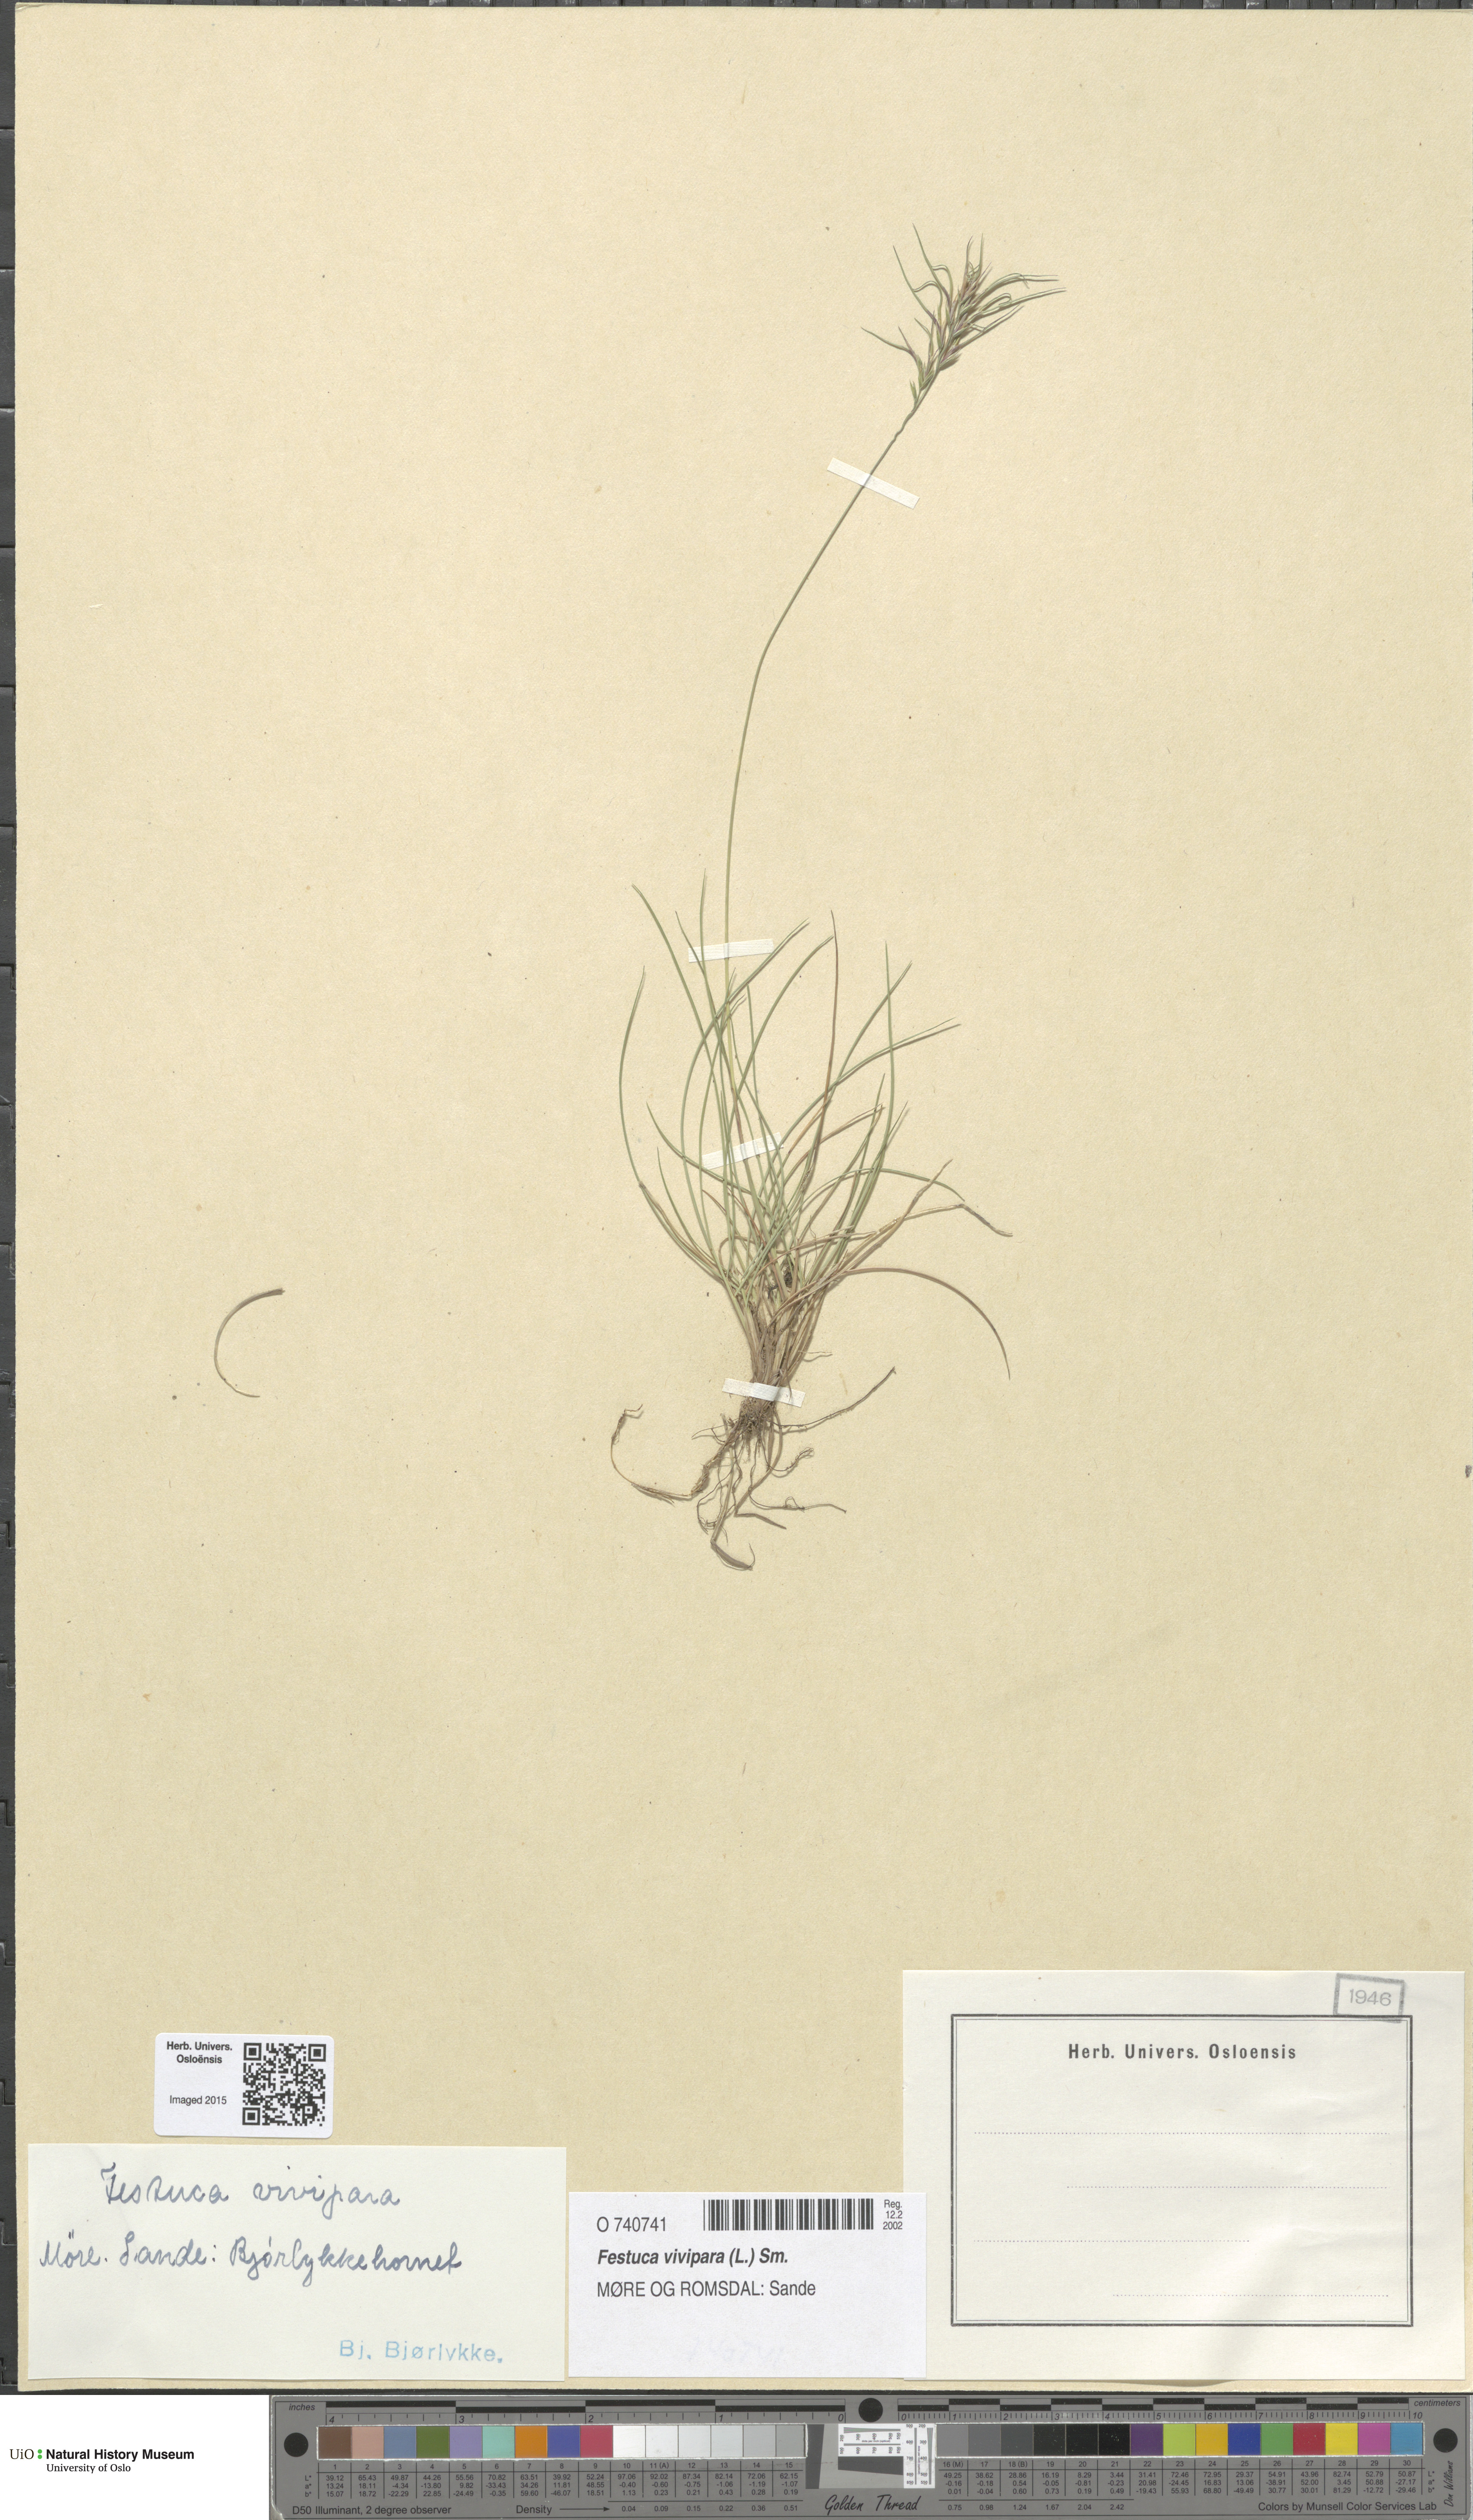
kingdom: Plantae
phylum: Tracheophyta
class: Liliopsida
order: Poales
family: Poaceae
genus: Festuca
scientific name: Festuca vivipara
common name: Viviparous sheep's-fescue
